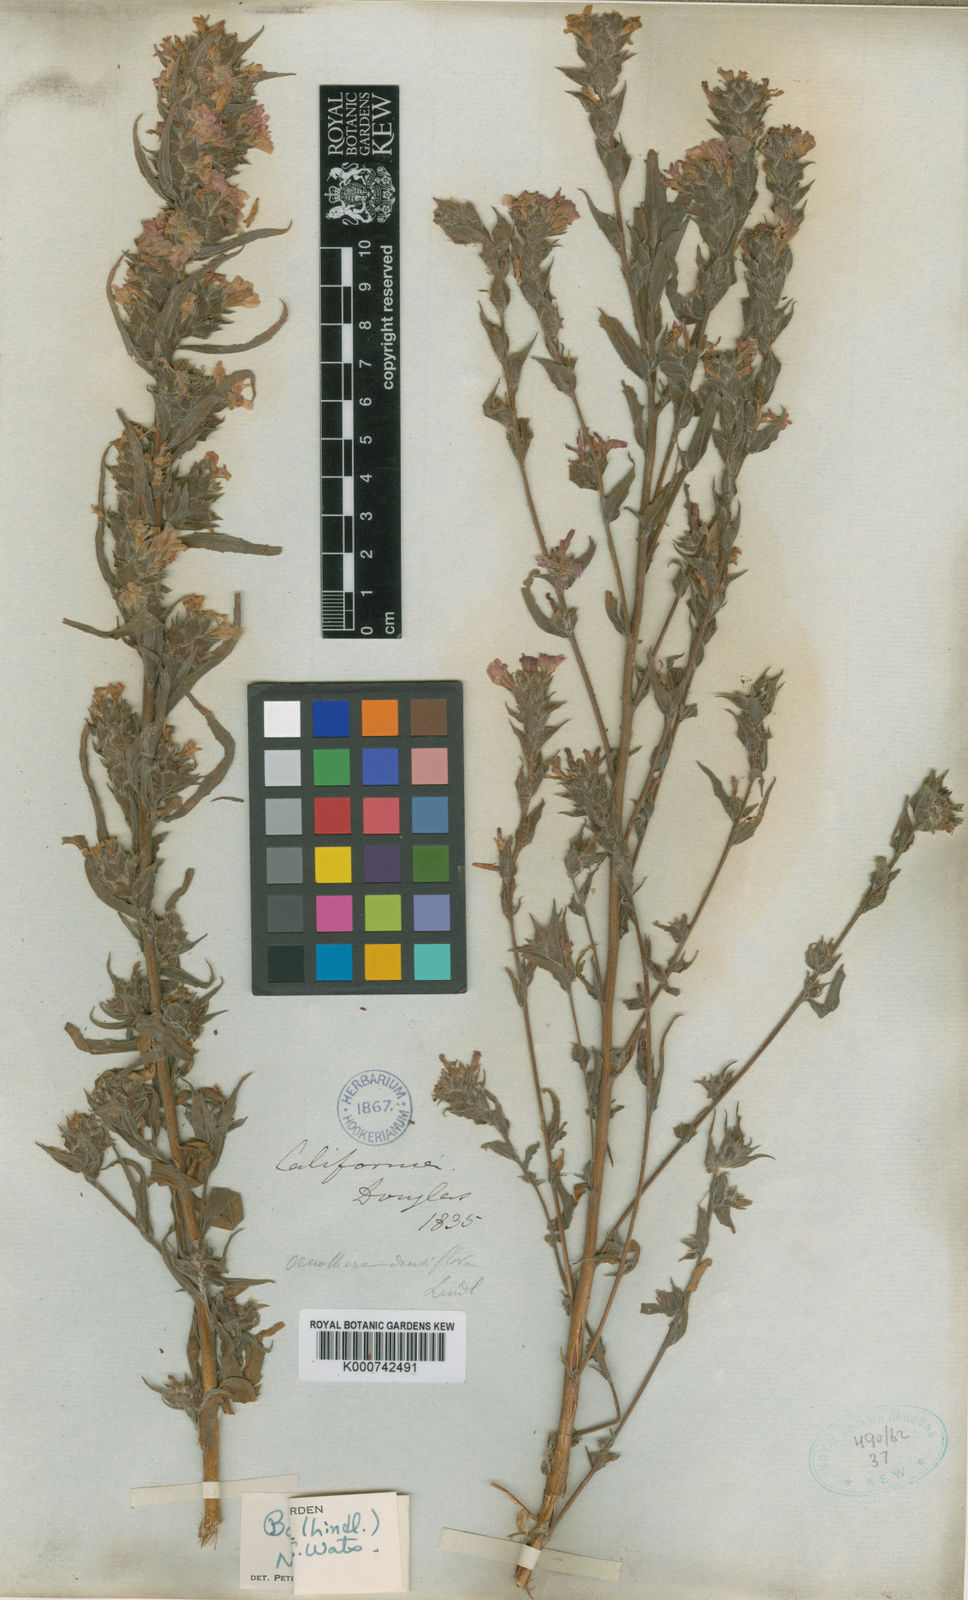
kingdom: Animalia
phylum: Arthropoda
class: Insecta
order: Diptera
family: Platystomatidae
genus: Boisduvalia
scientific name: Boisduvalia
